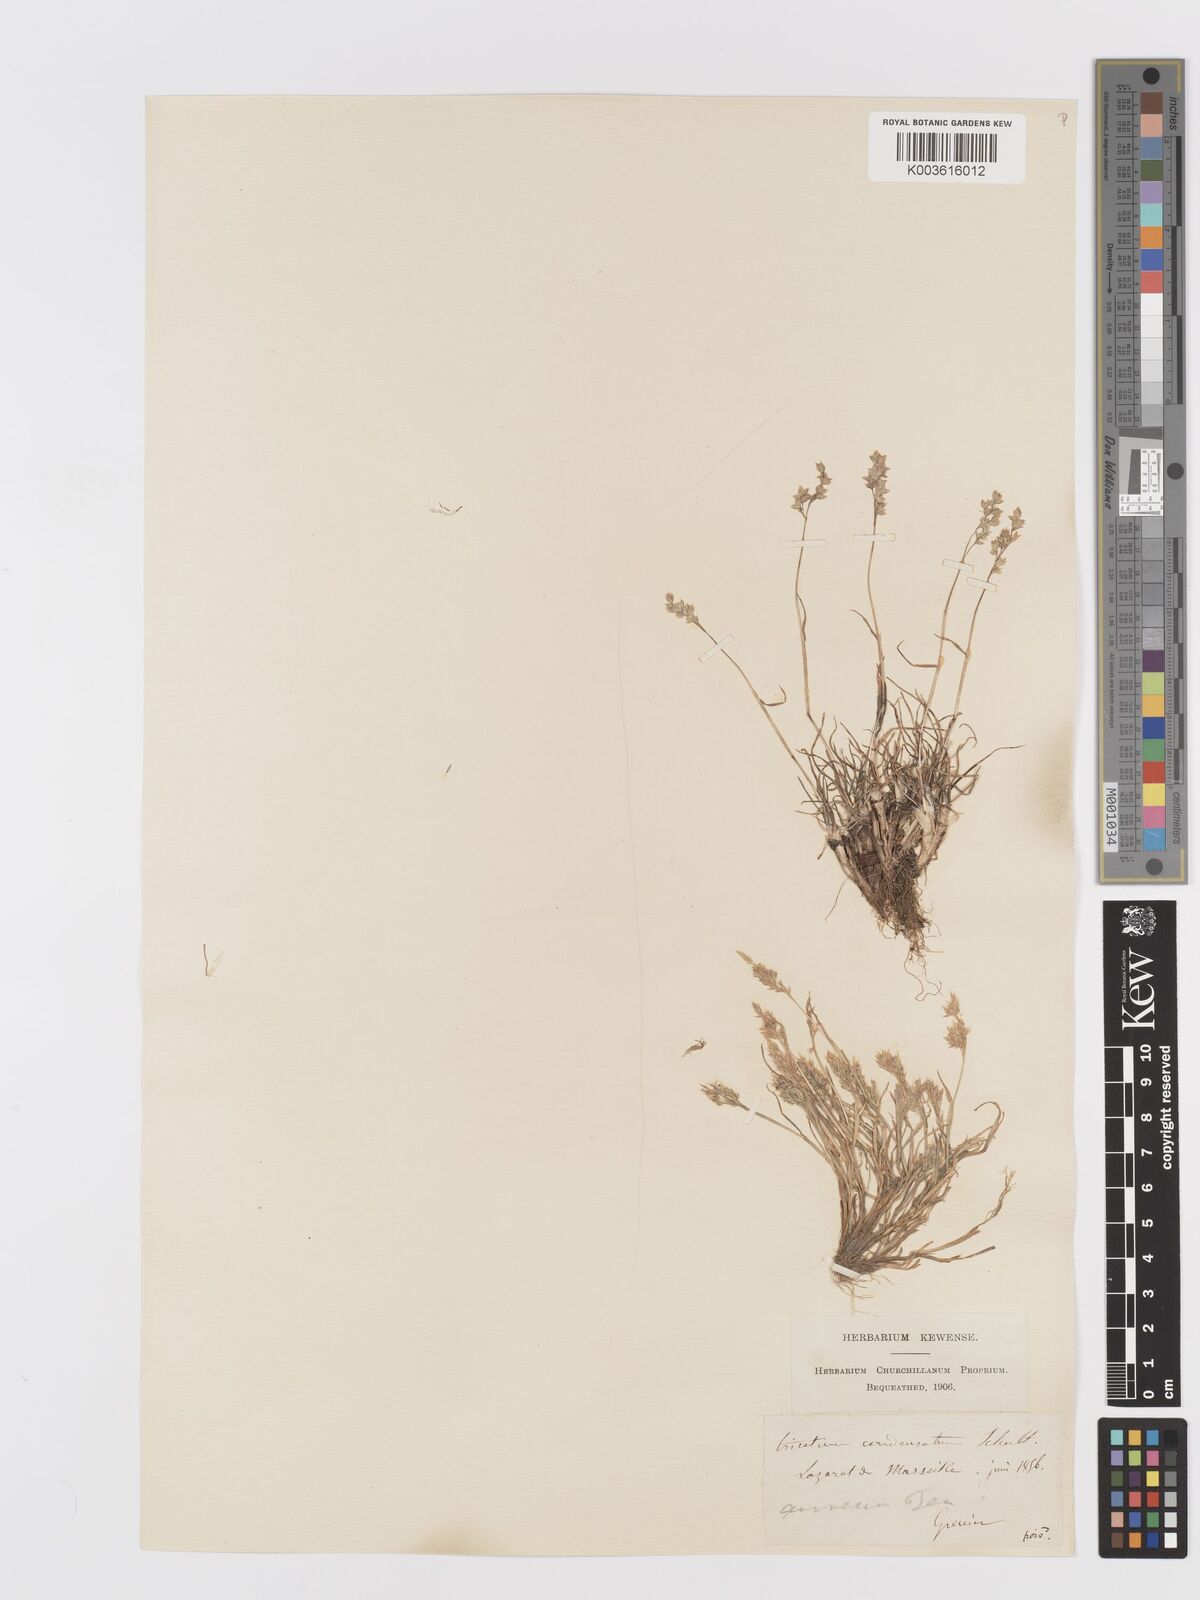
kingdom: Plantae
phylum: Tracheophyta
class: Liliopsida
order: Poales
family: Poaceae
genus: Trisetaria
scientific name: Trisetaria aurea
